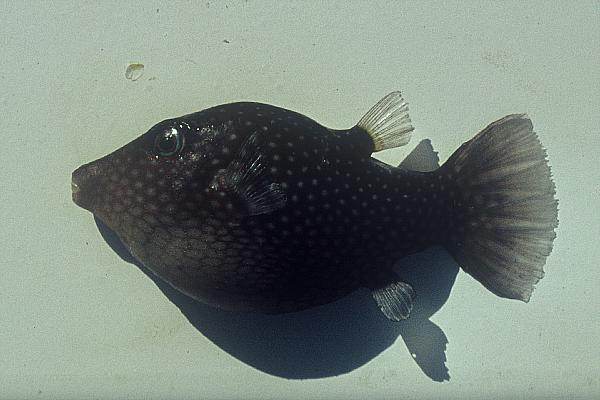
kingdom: Animalia
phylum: Chordata
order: Tetraodontiformes
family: Tetraodontidae
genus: Canthigaster
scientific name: Canthigaster janthinoptera
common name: Honeycomb toby
